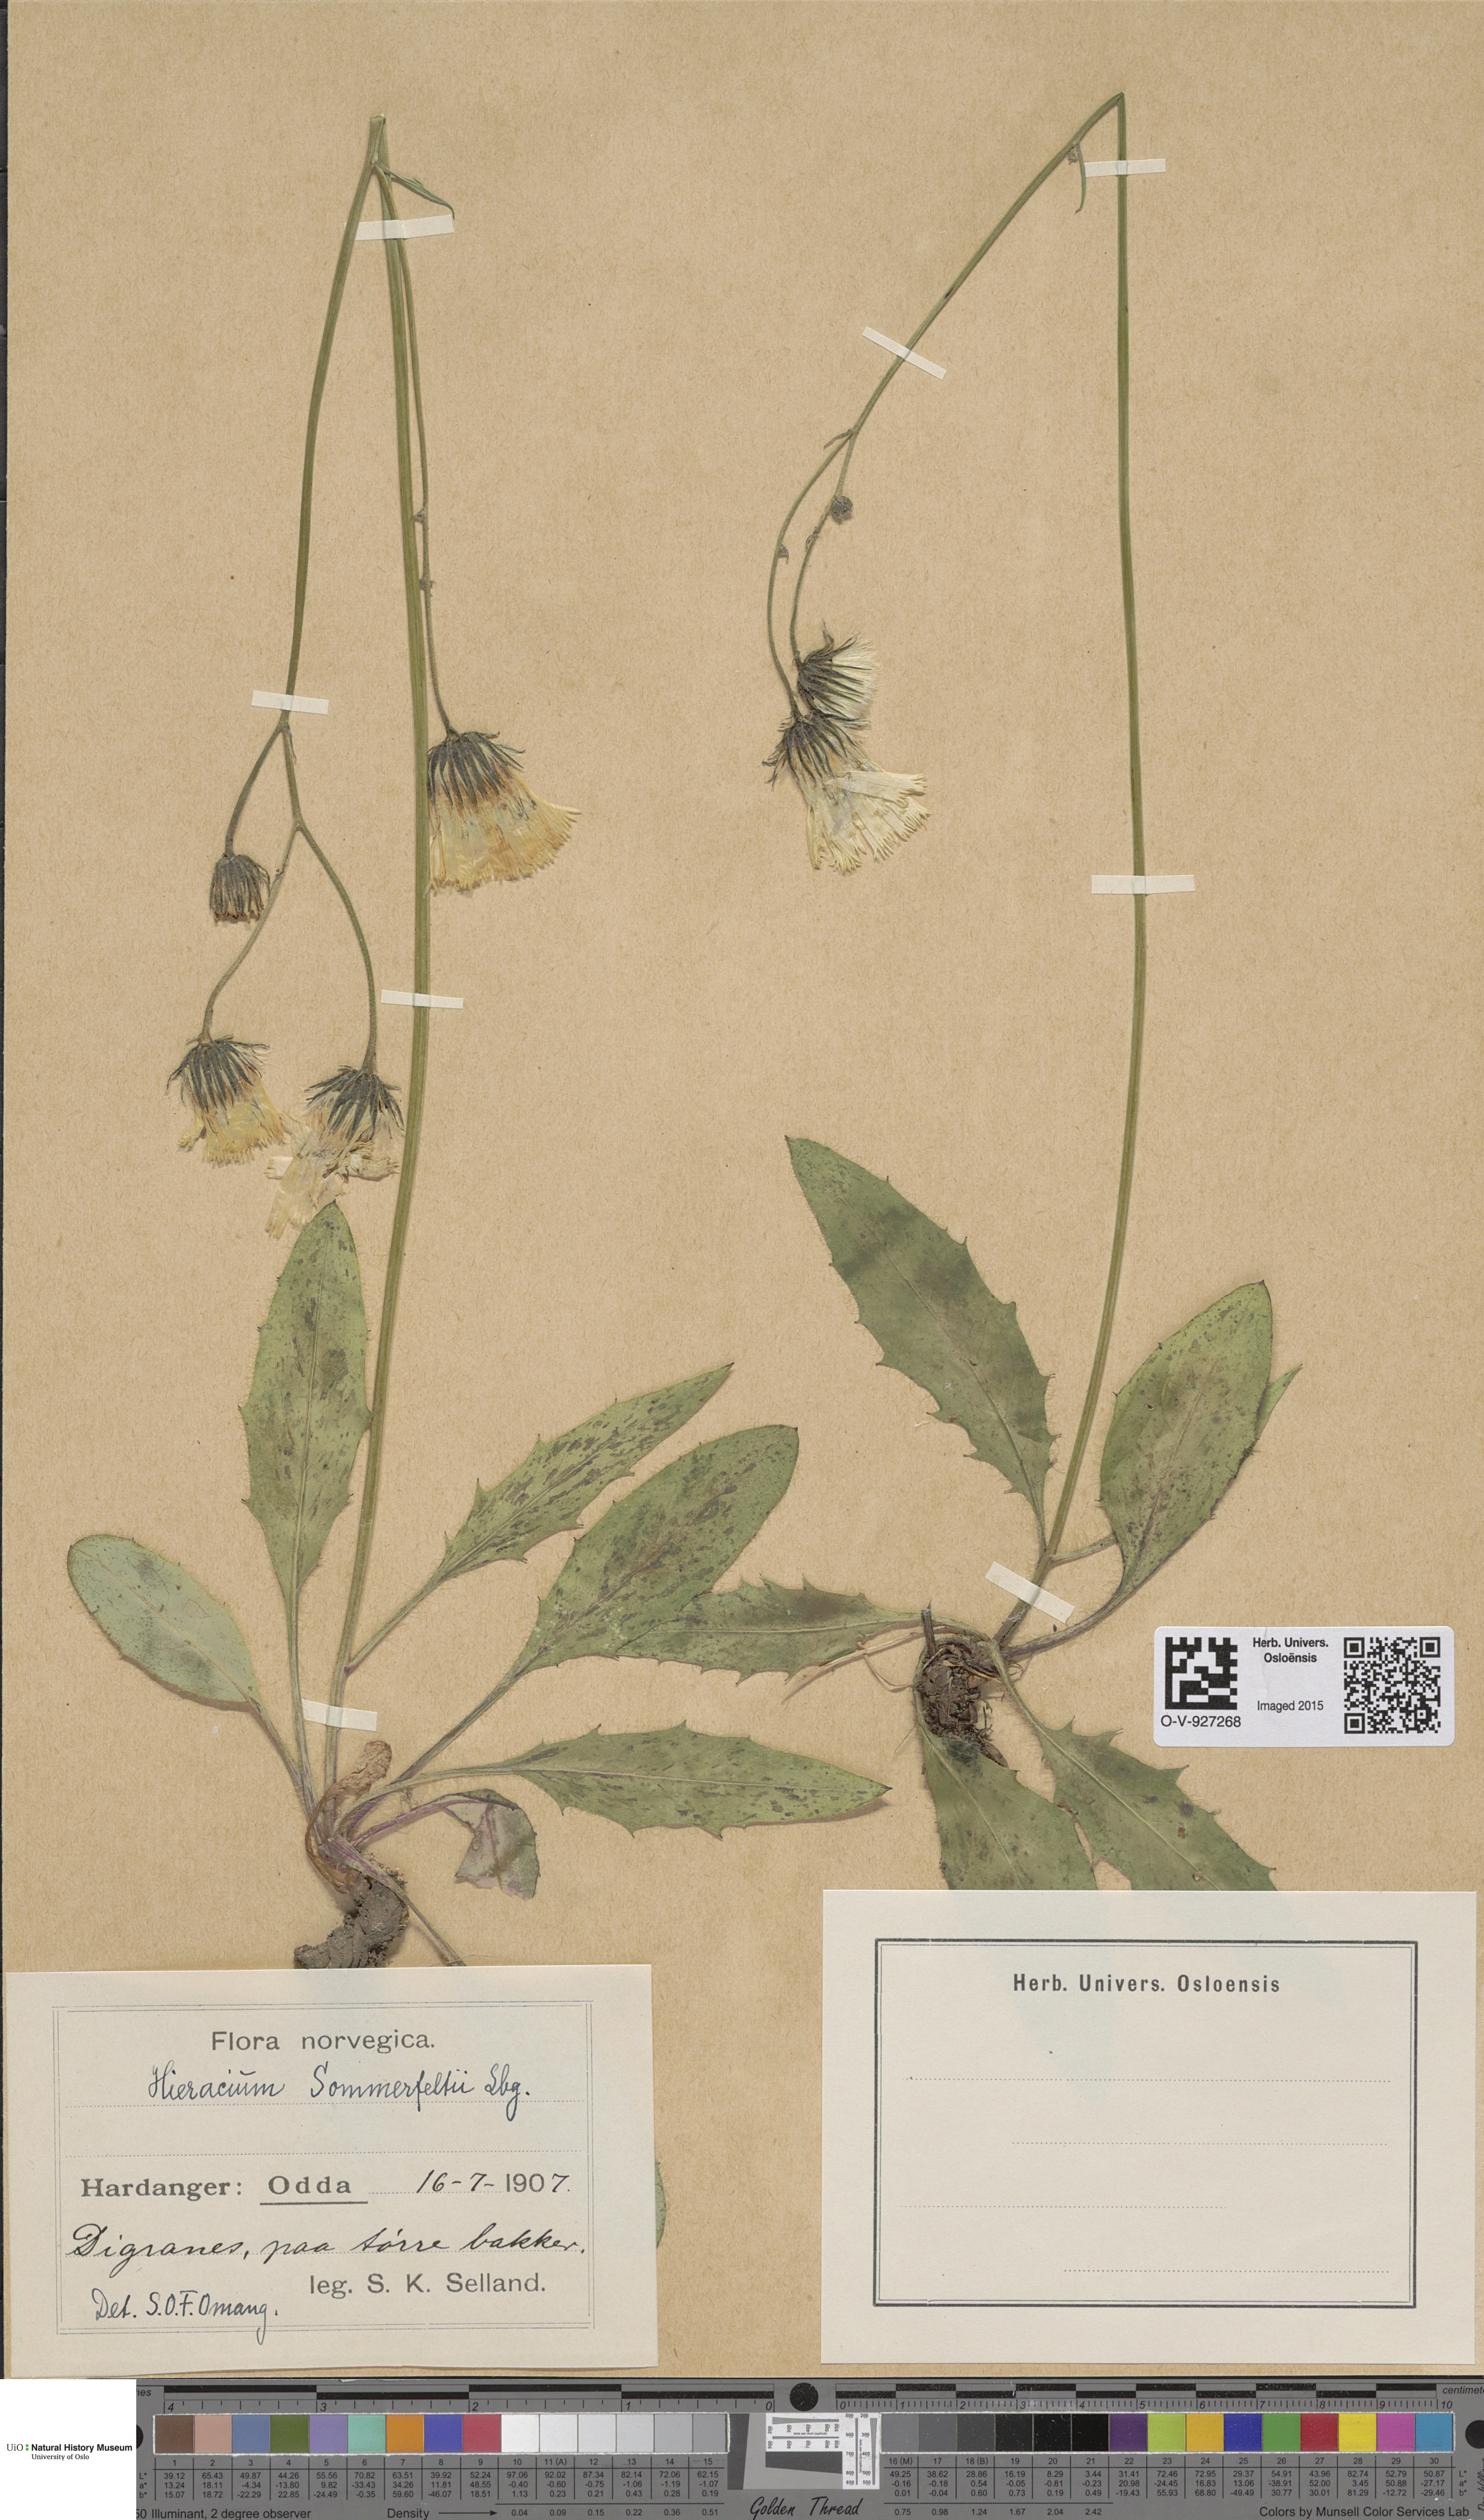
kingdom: Plantae
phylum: Tracheophyta
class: Magnoliopsida
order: Asterales
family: Asteraceae
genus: Hieracium
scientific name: Hieracium sommerfeltii
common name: Sommerfelt's hawkweed
